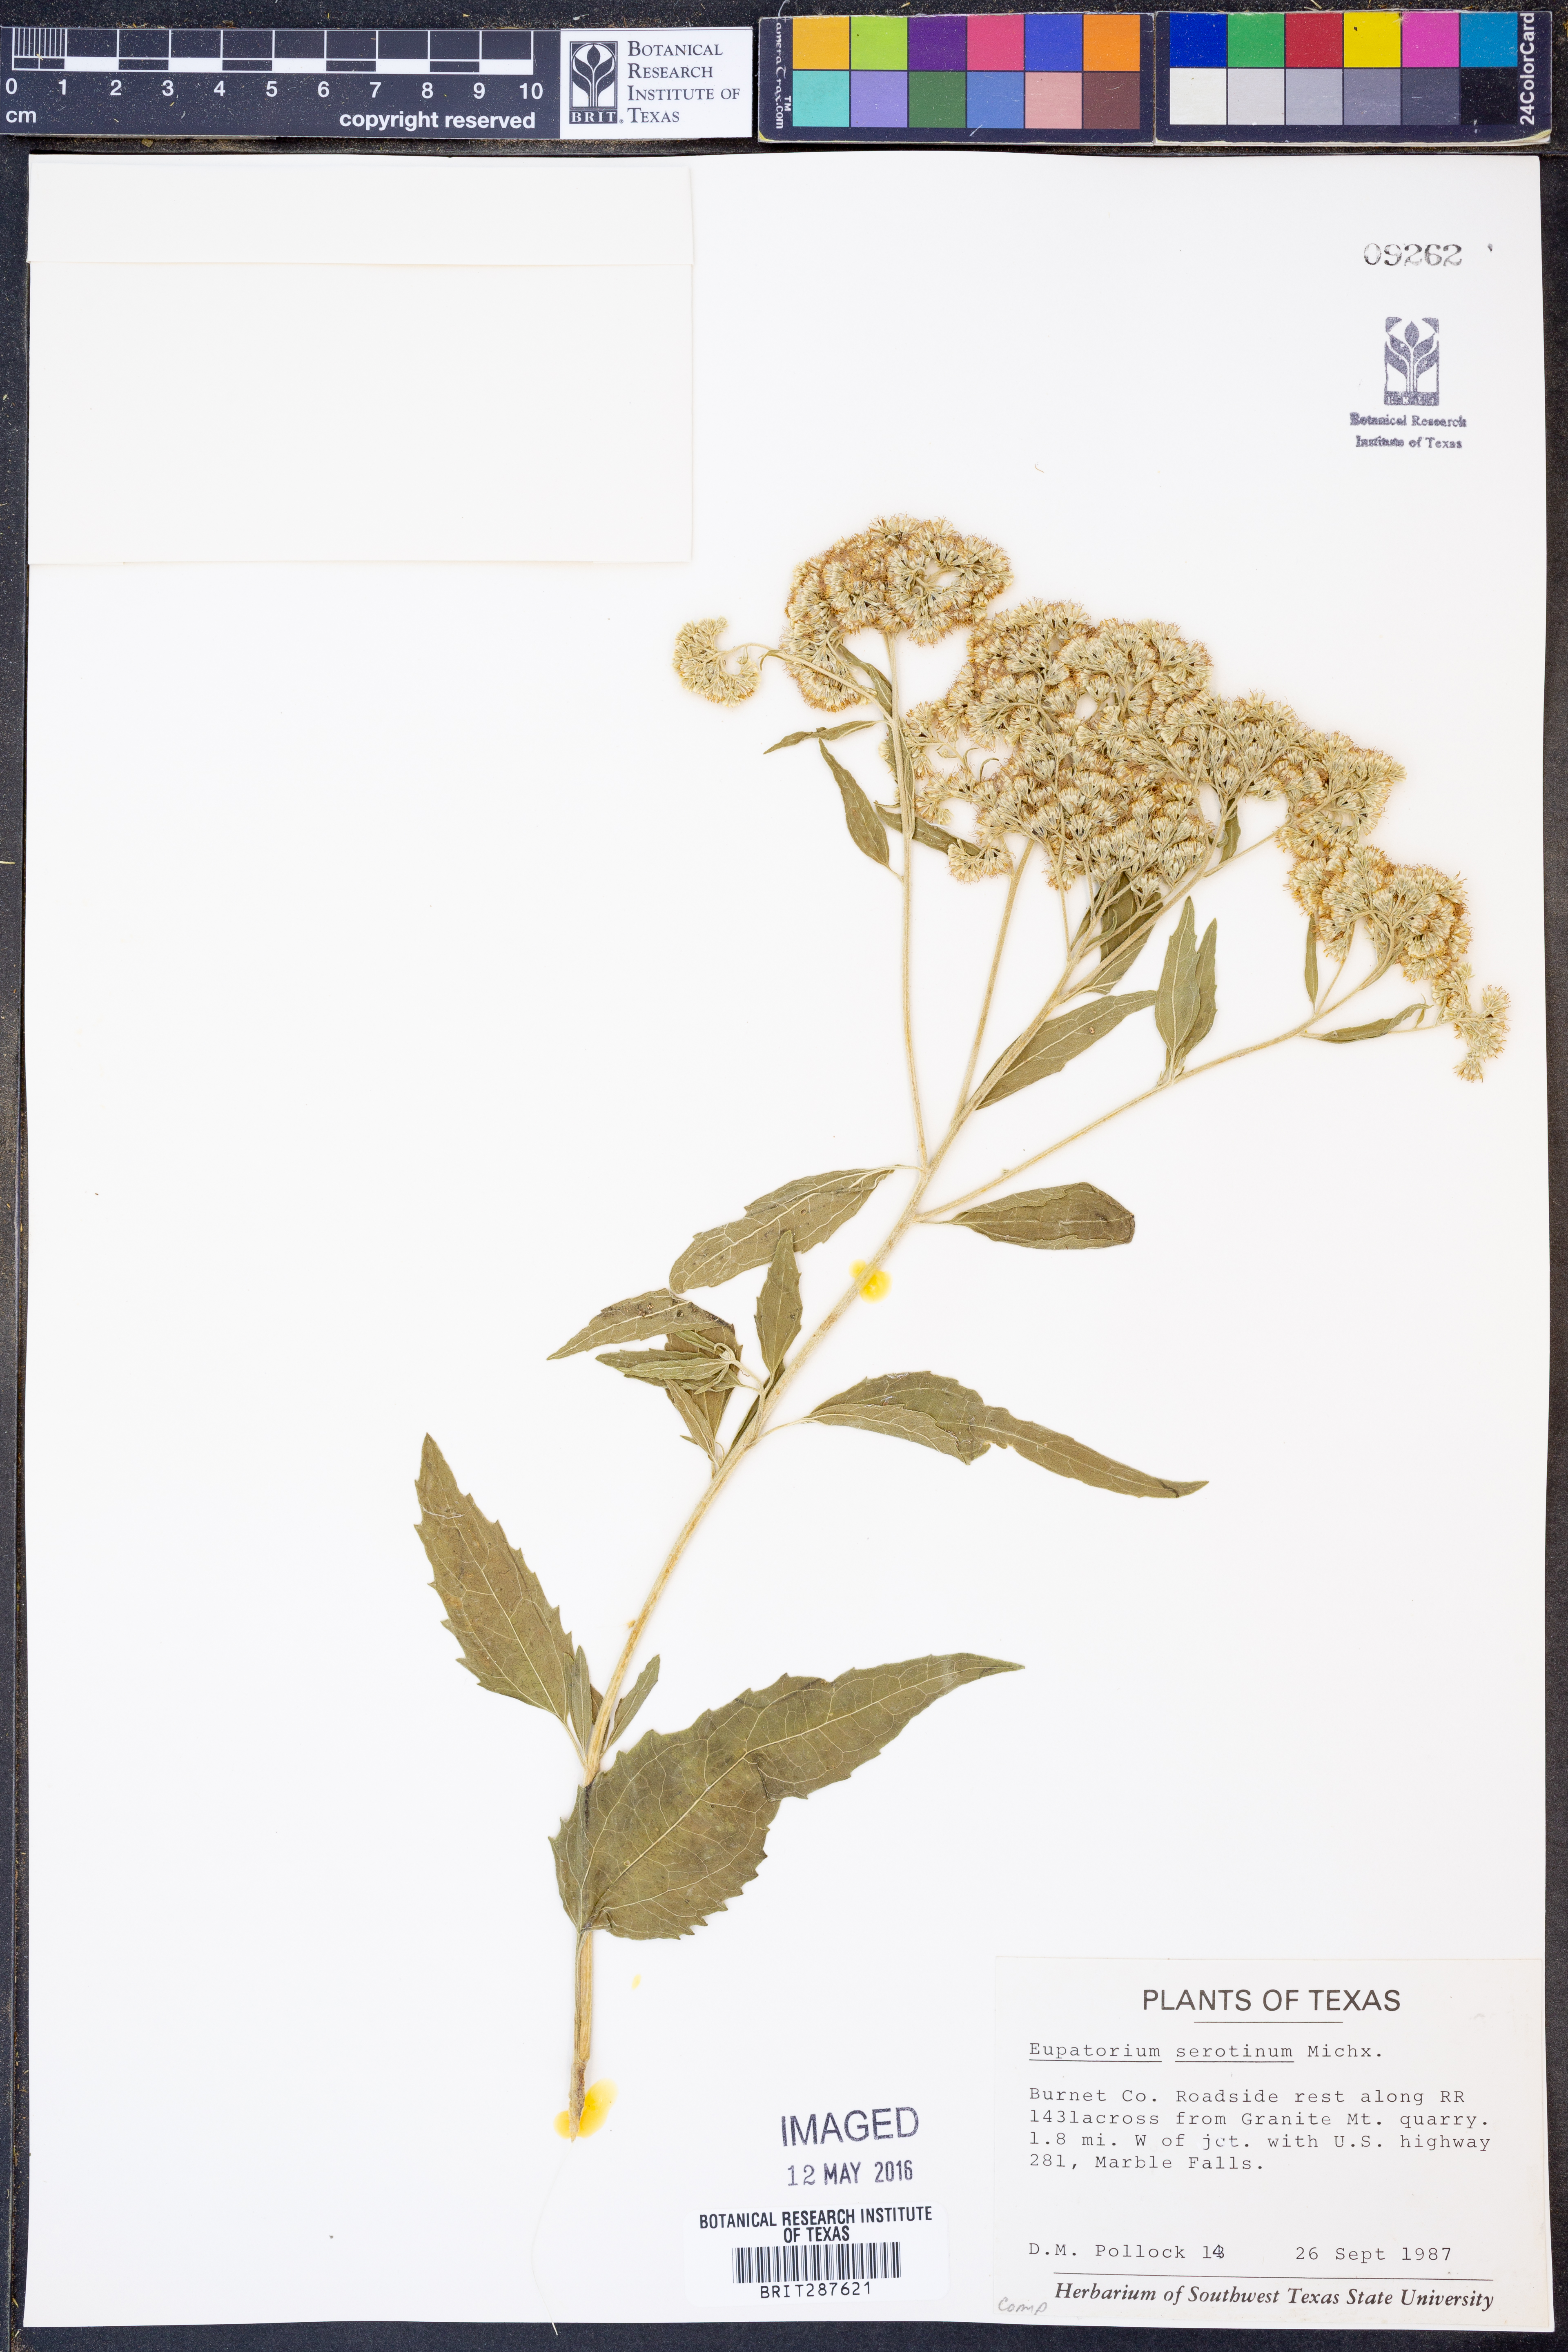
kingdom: Plantae
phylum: Tracheophyta
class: Magnoliopsida
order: Asterales
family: Asteraceae
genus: Eupatorium
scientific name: Eupatorium serotinum
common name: Late boneset
